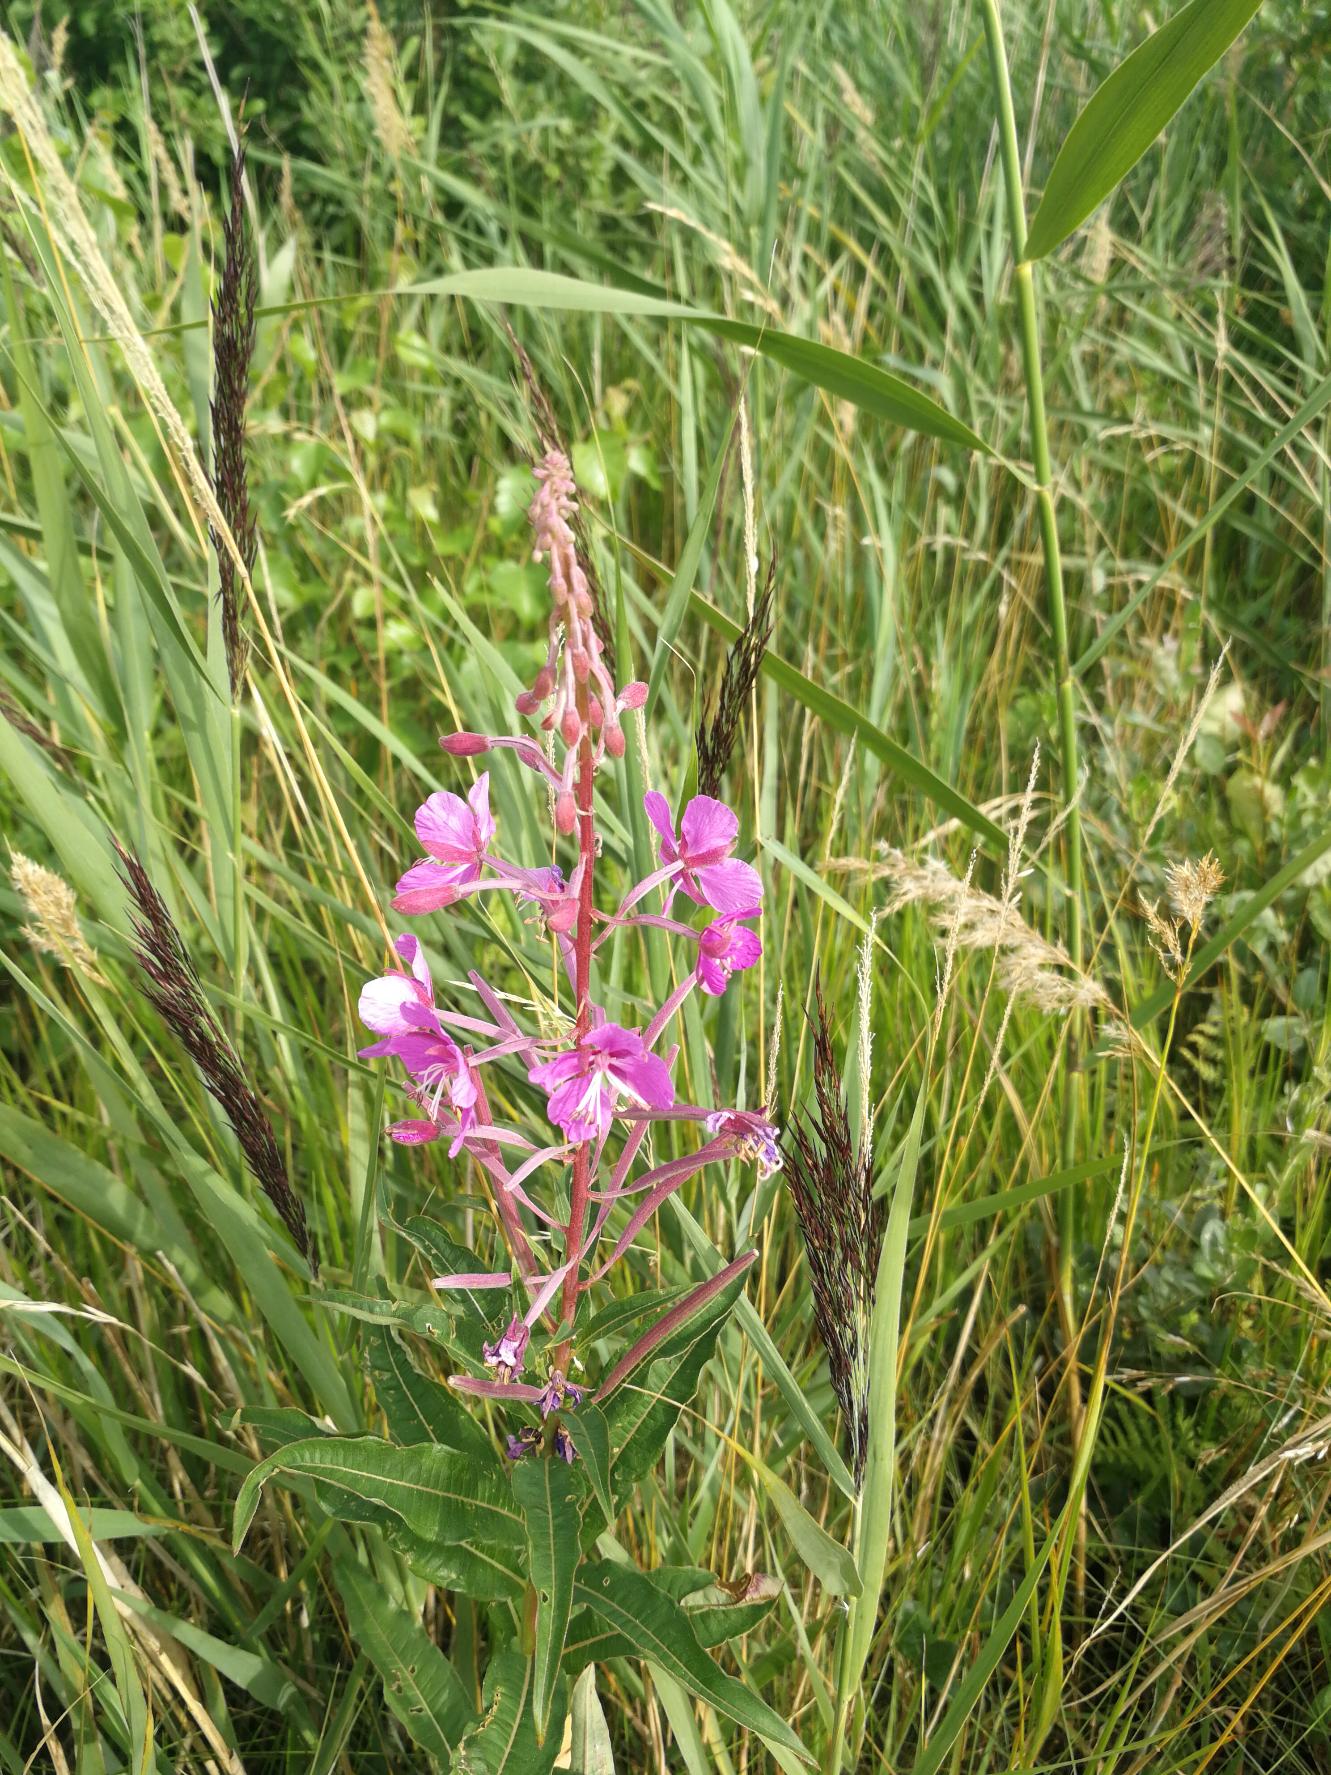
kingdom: Plantae
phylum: Tracheophyta
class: Magnoliopsida
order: Myrtales
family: Onagraceae
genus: Chamaenerion
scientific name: Chamaenerion angustifolium
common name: Gederams
